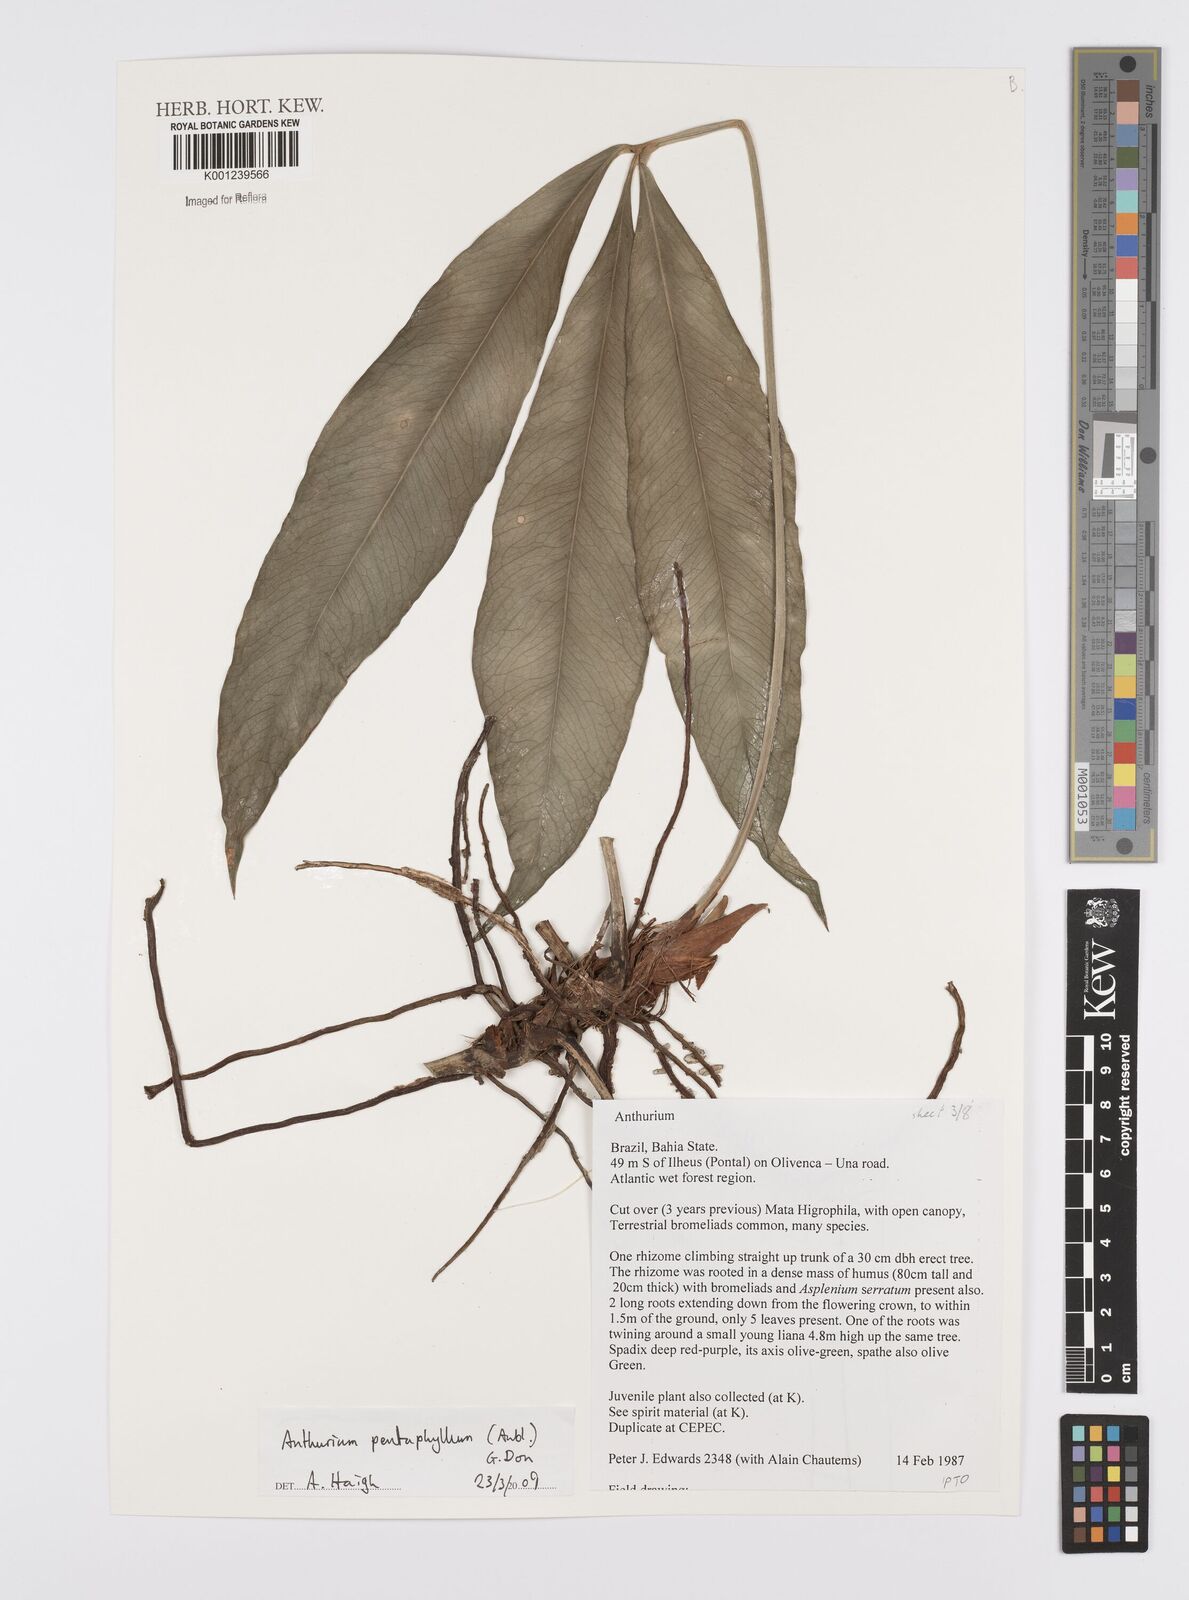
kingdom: Plantae
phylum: Tracheophyta
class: Liliopsida
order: Alismatales
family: Araceae
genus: Anthurium
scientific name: Anthurium pentaphyllum
